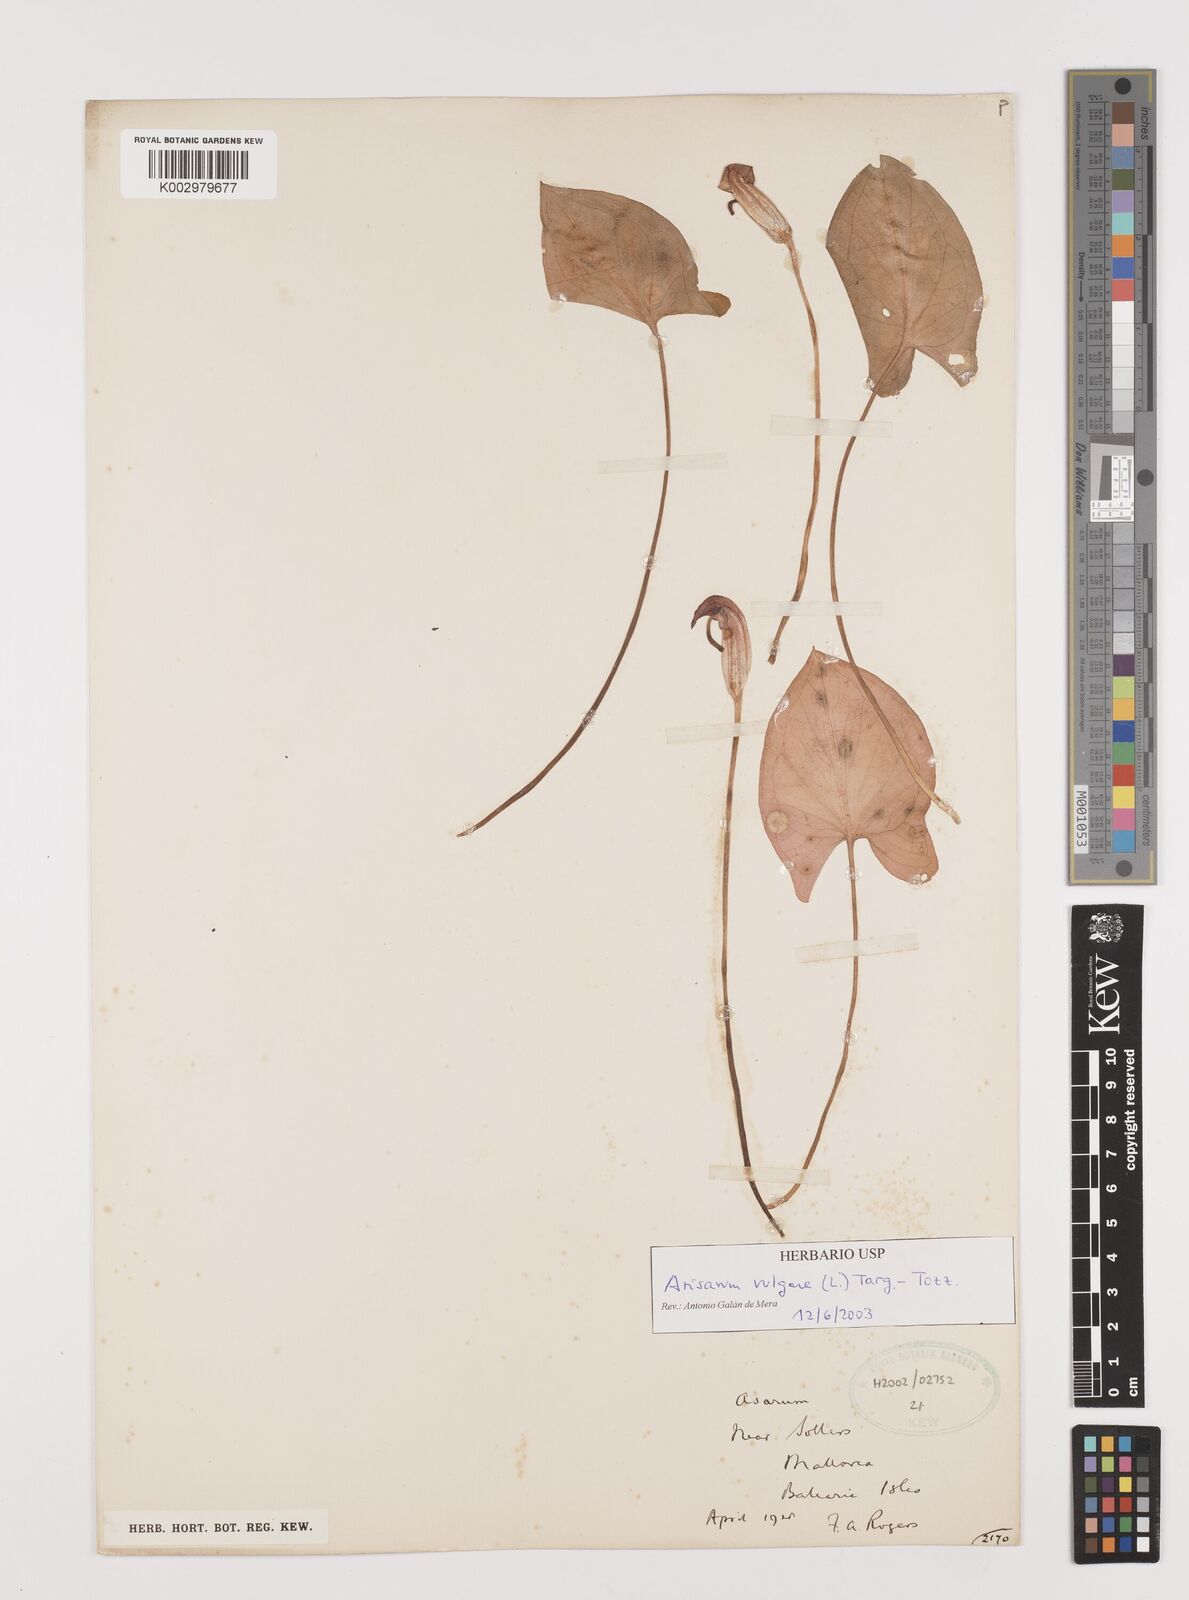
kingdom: Plantae
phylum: Tracheophyta
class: Liliopsida
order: Alismatales
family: Araceae
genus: Arisarum
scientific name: Arisarum vulgare
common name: Common arisarum
